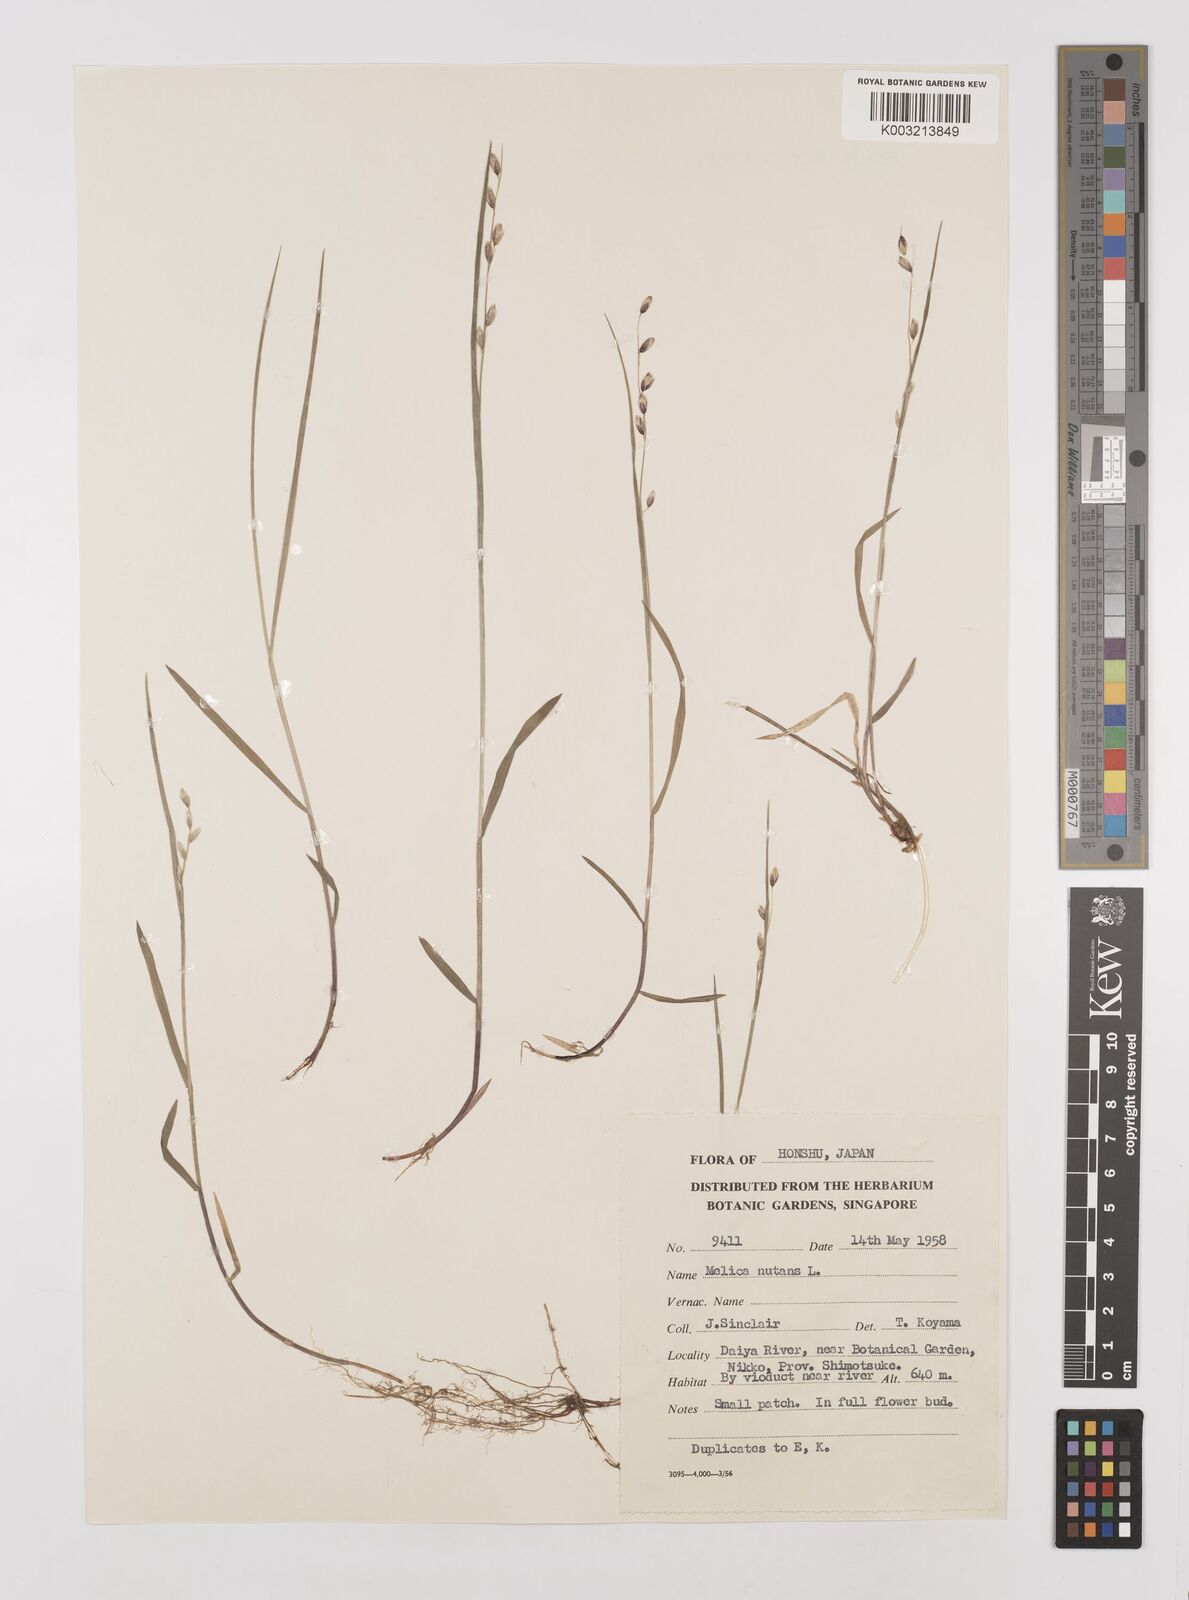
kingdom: Plantae
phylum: Tracheophyta
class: Liliopsida
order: Poales
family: Poaceae
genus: Melica
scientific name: Melica nutans
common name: Mountain melick
